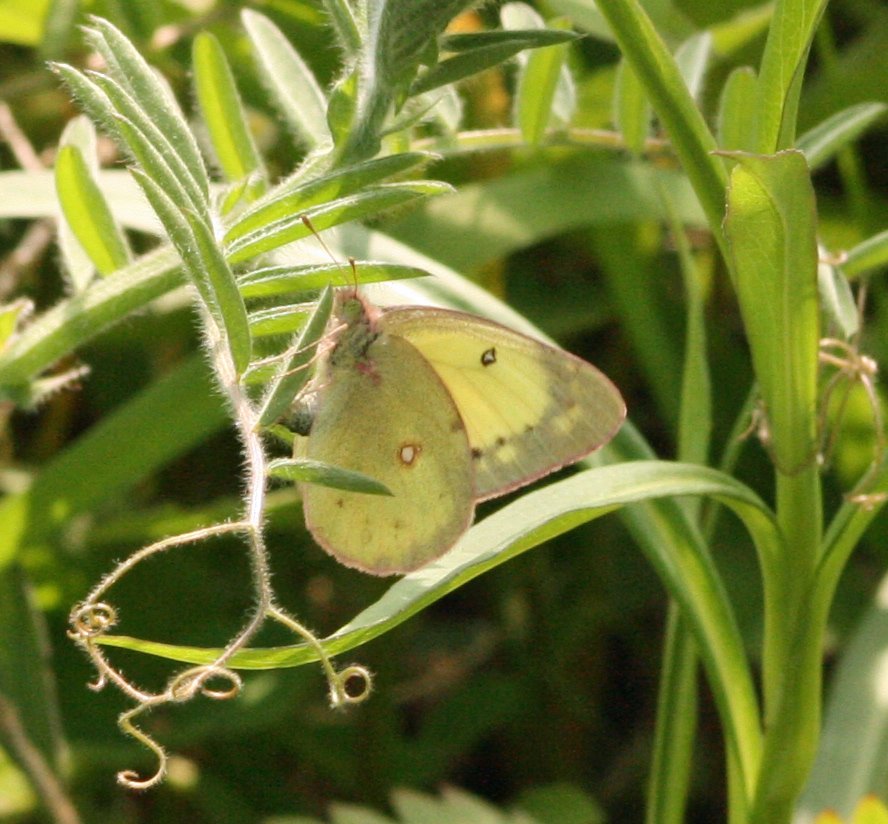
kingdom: Animalia
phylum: Arthropoda
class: Insecta
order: Lepidoptera
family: Pieridae
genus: Colias
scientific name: Colias philodice
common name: Clouded Sulphur
